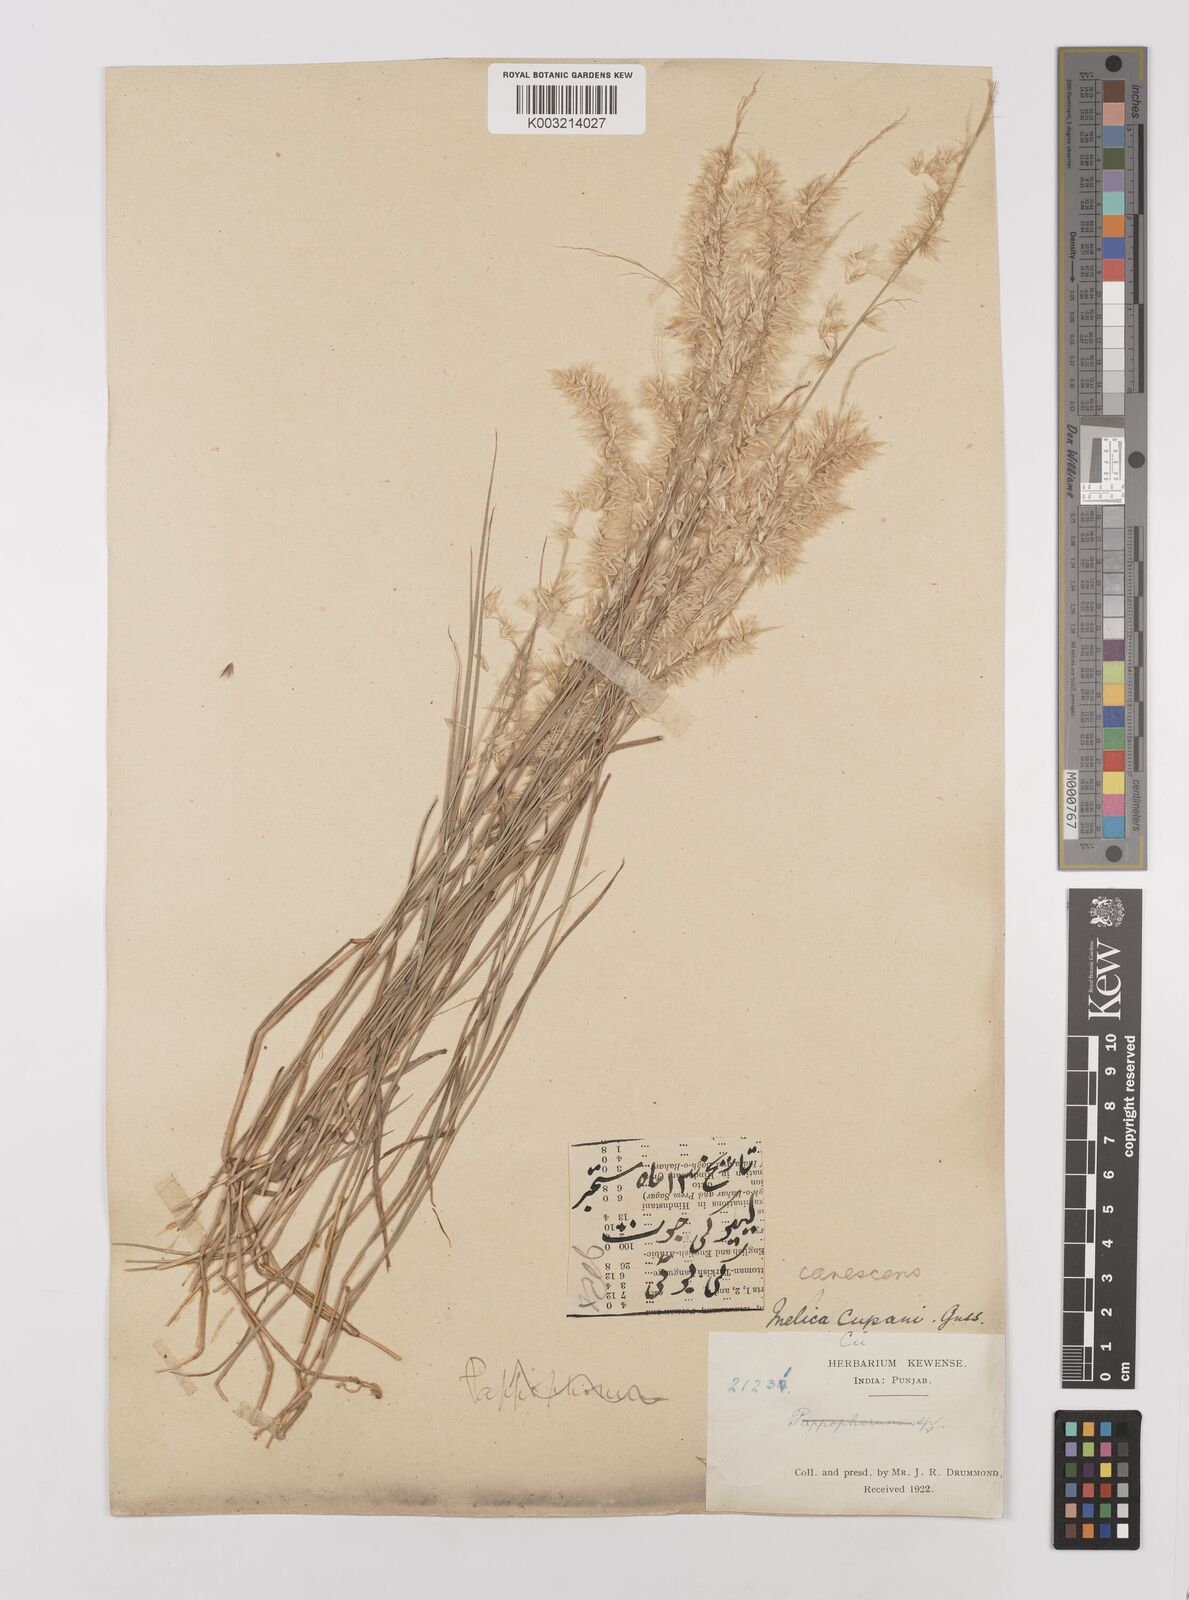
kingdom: Plantae
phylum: Tracheophyta
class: Liliopsida
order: Poales
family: Poaceae
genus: Melica
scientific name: Melica persica
